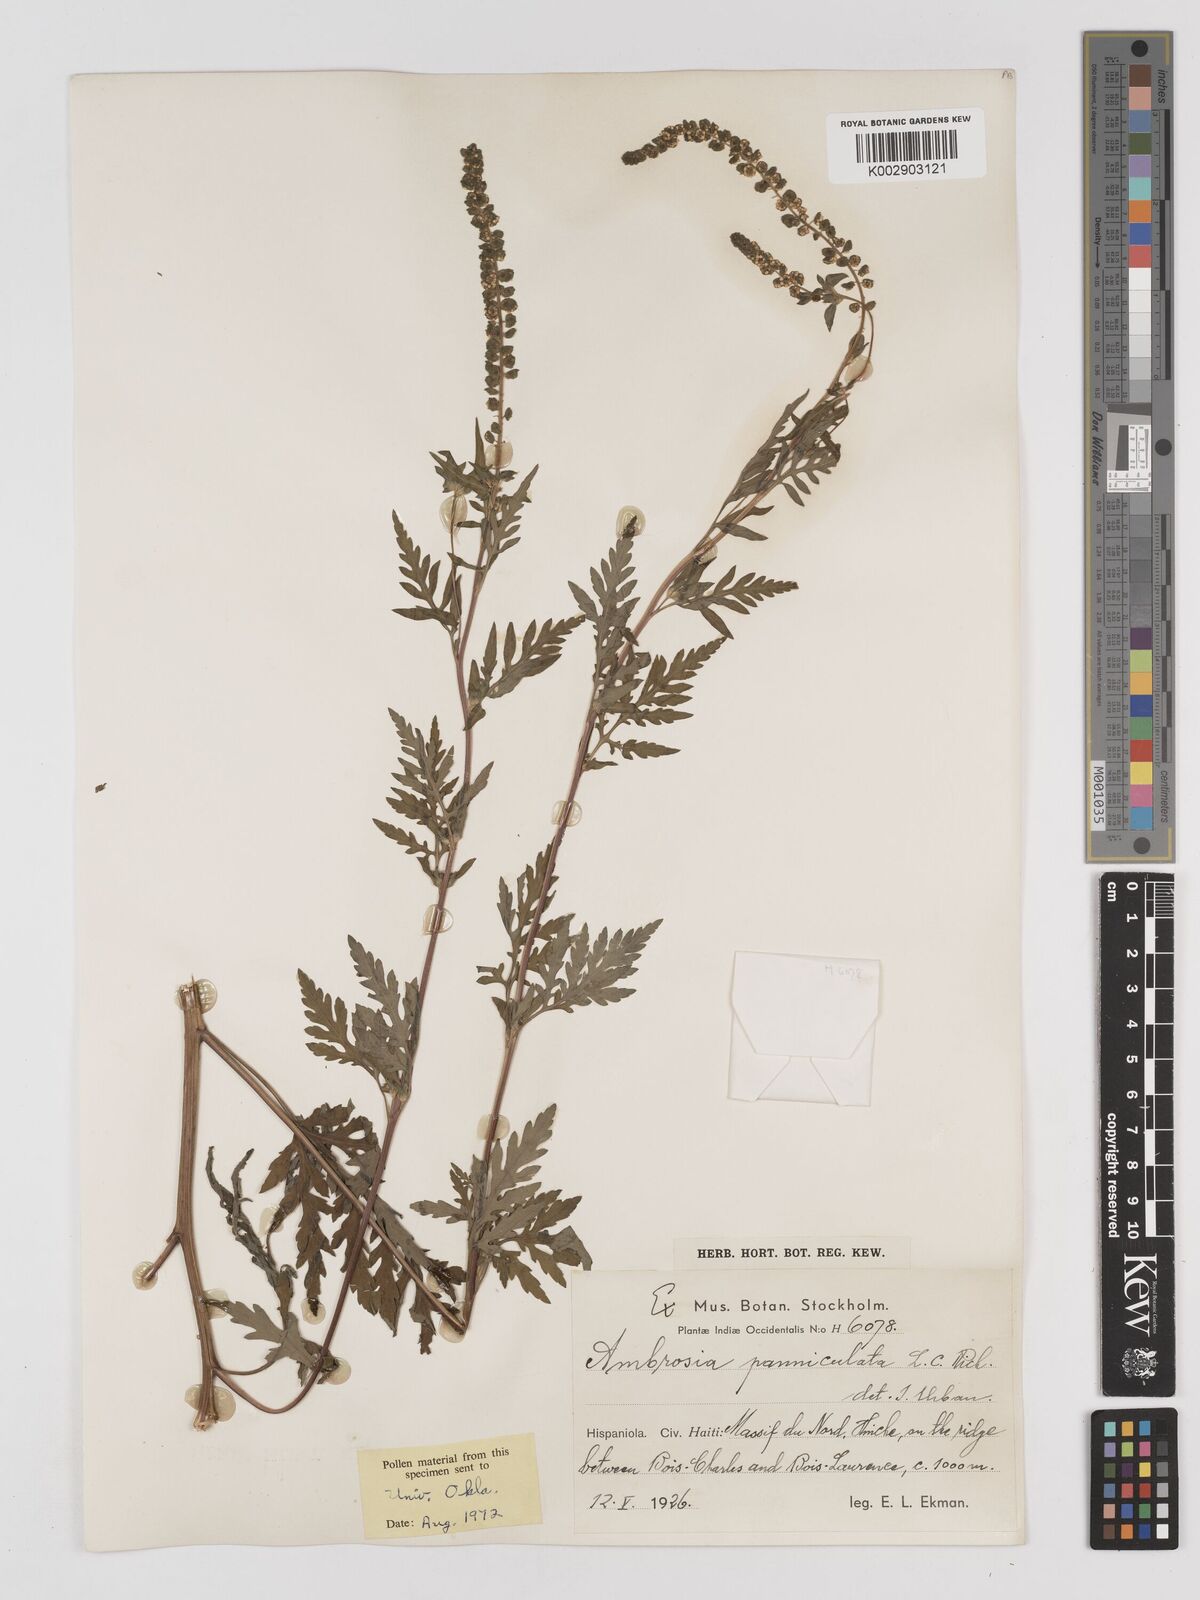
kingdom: Plantae
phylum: Tracheophyta
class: Magnoliopsida
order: Asterales
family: Asteraceae
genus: Ambrosia
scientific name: Ambrosia cumanensis
